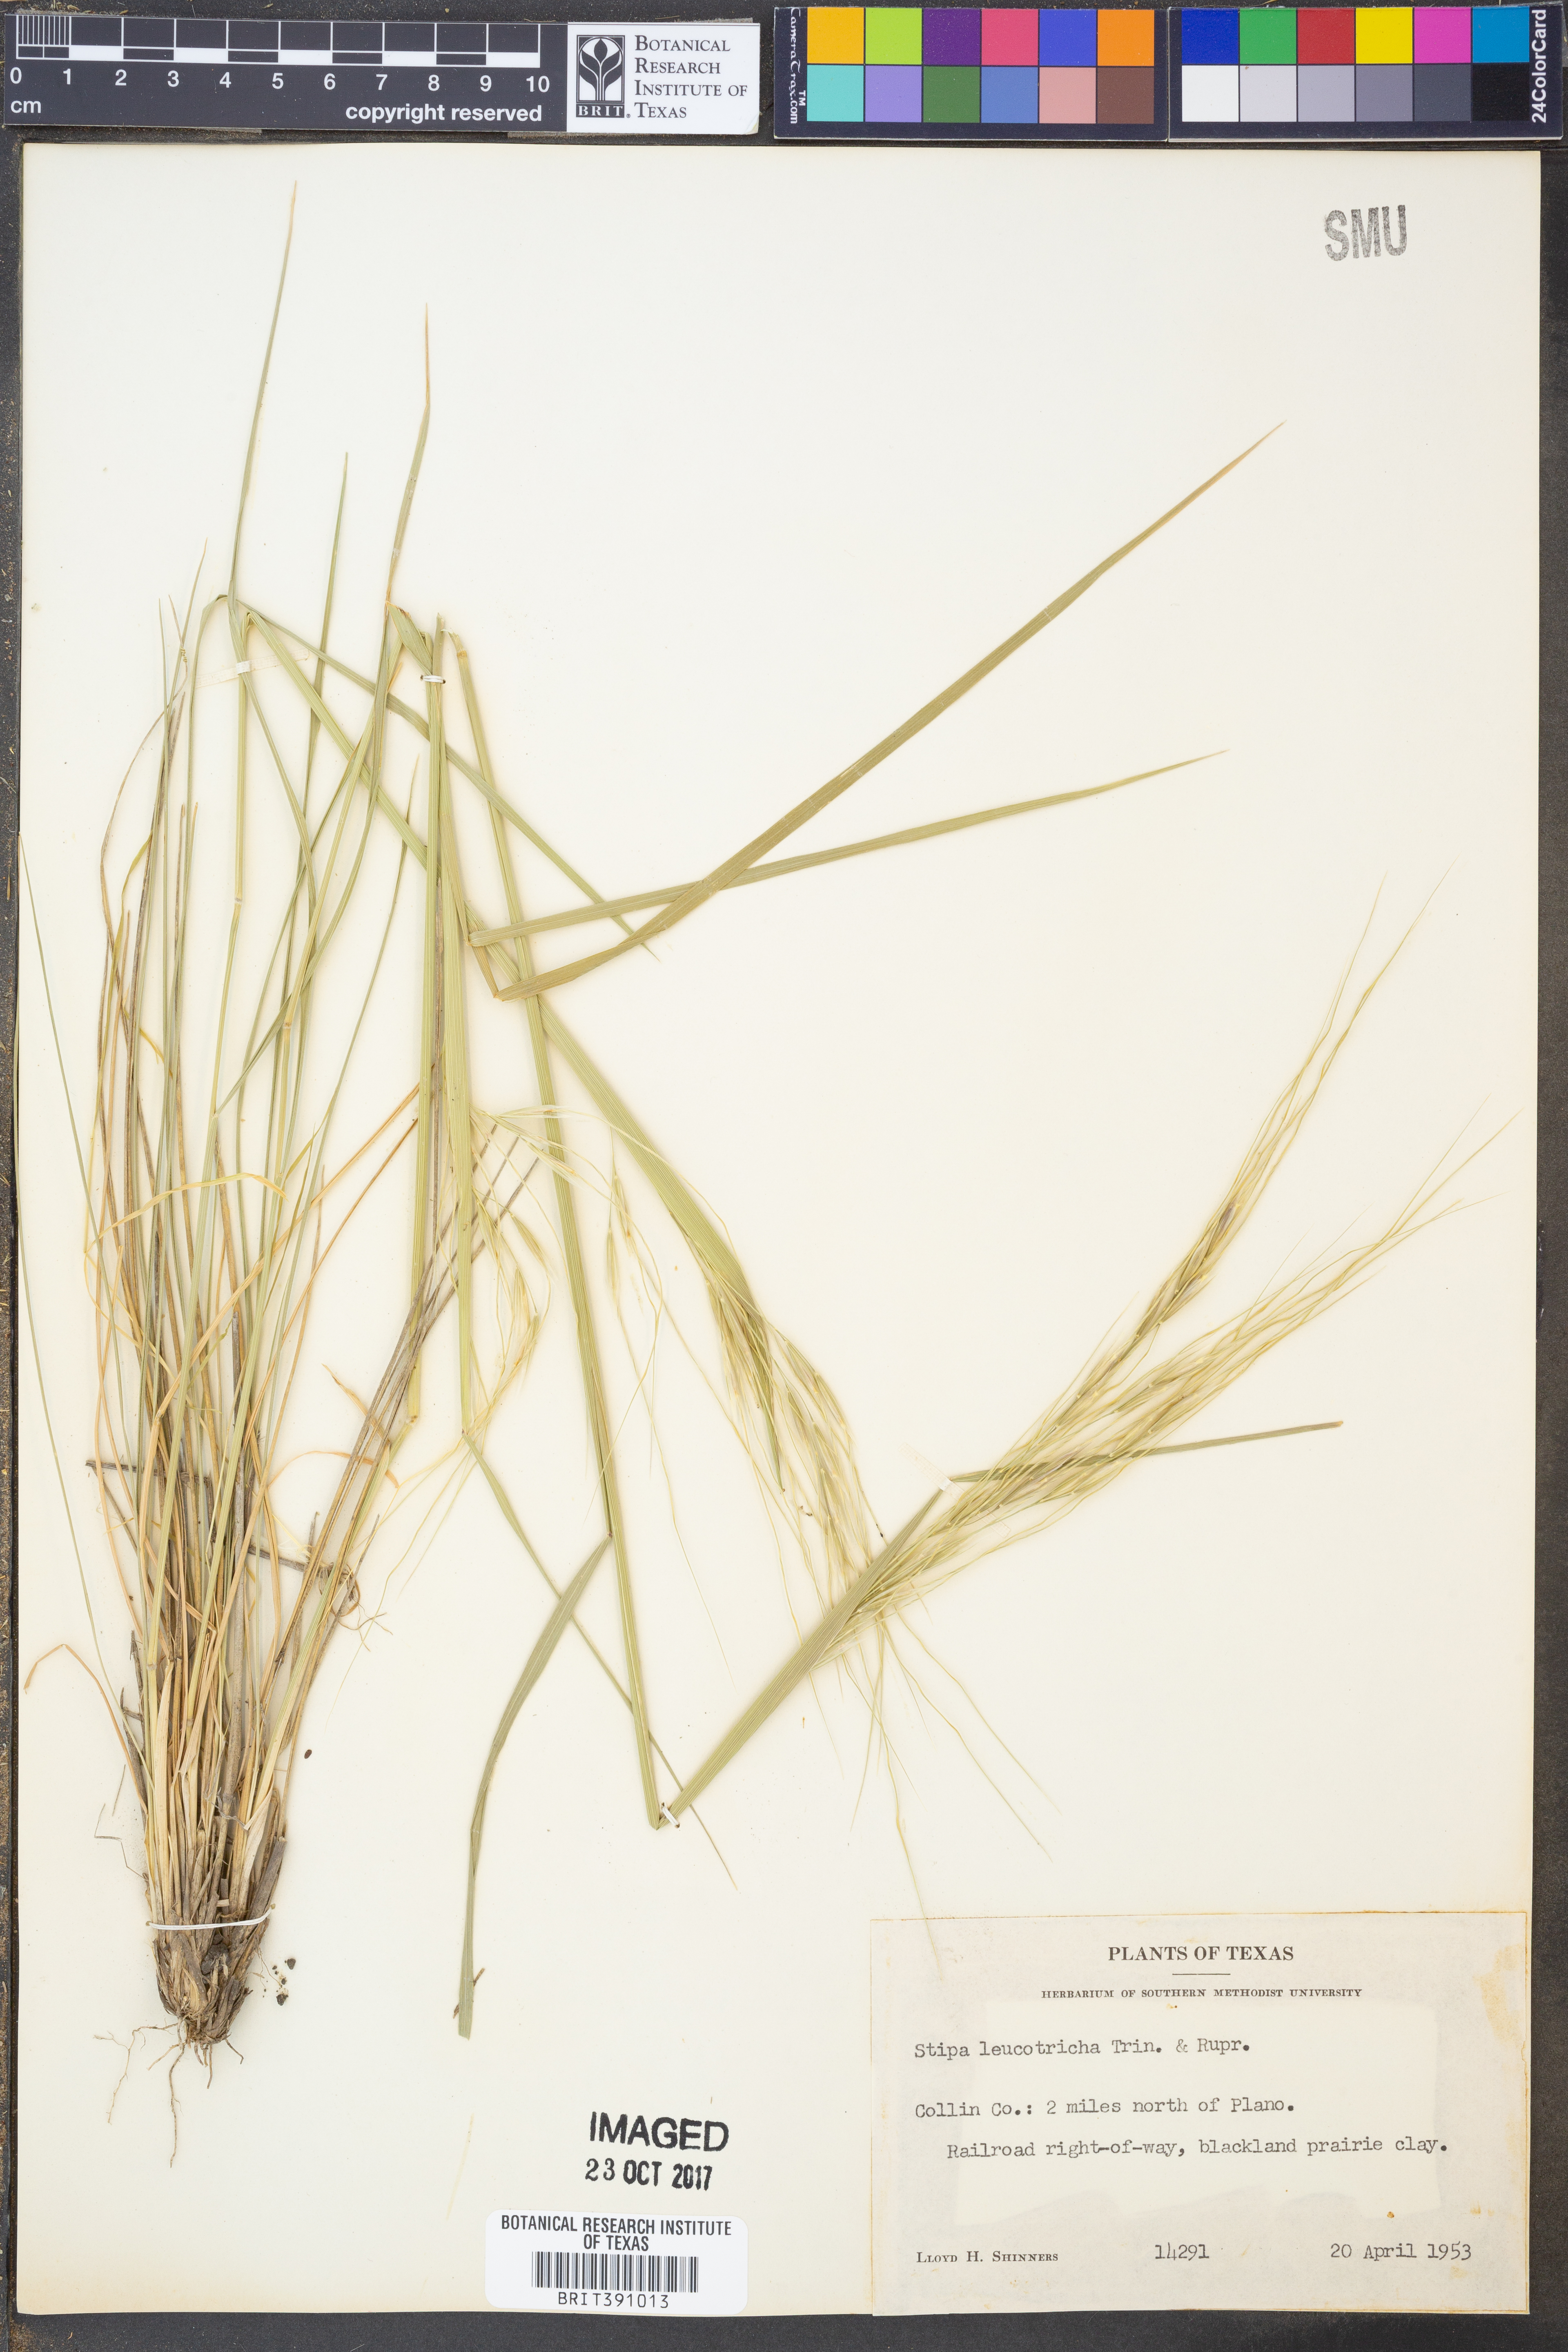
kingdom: Plantae
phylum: Tracheophyta
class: Liliopsida
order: Poales
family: Poaceae
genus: Nassella
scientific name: Nassella leucotricha
